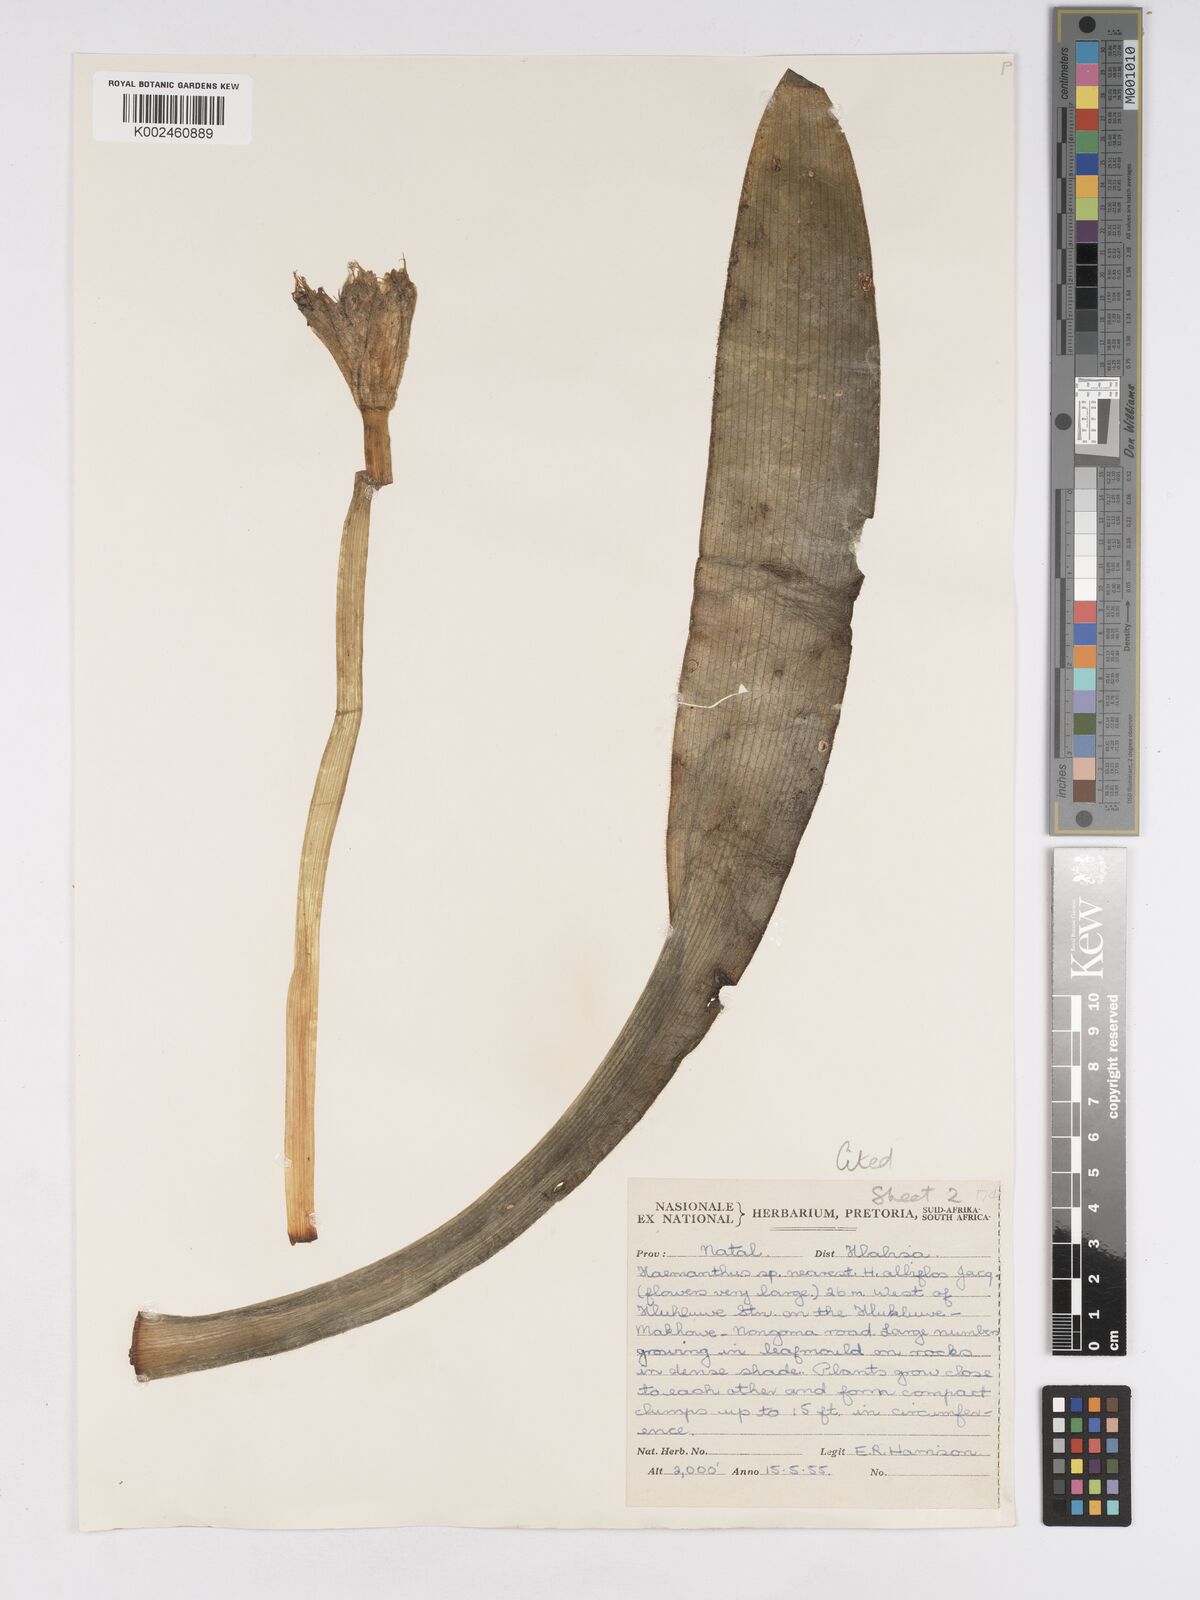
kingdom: Plantae
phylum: Tracheophyta
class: Liliopsida
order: Asparagales
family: Amaryllidaceae
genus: Haemanthus
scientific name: Haemanthus albiflos
